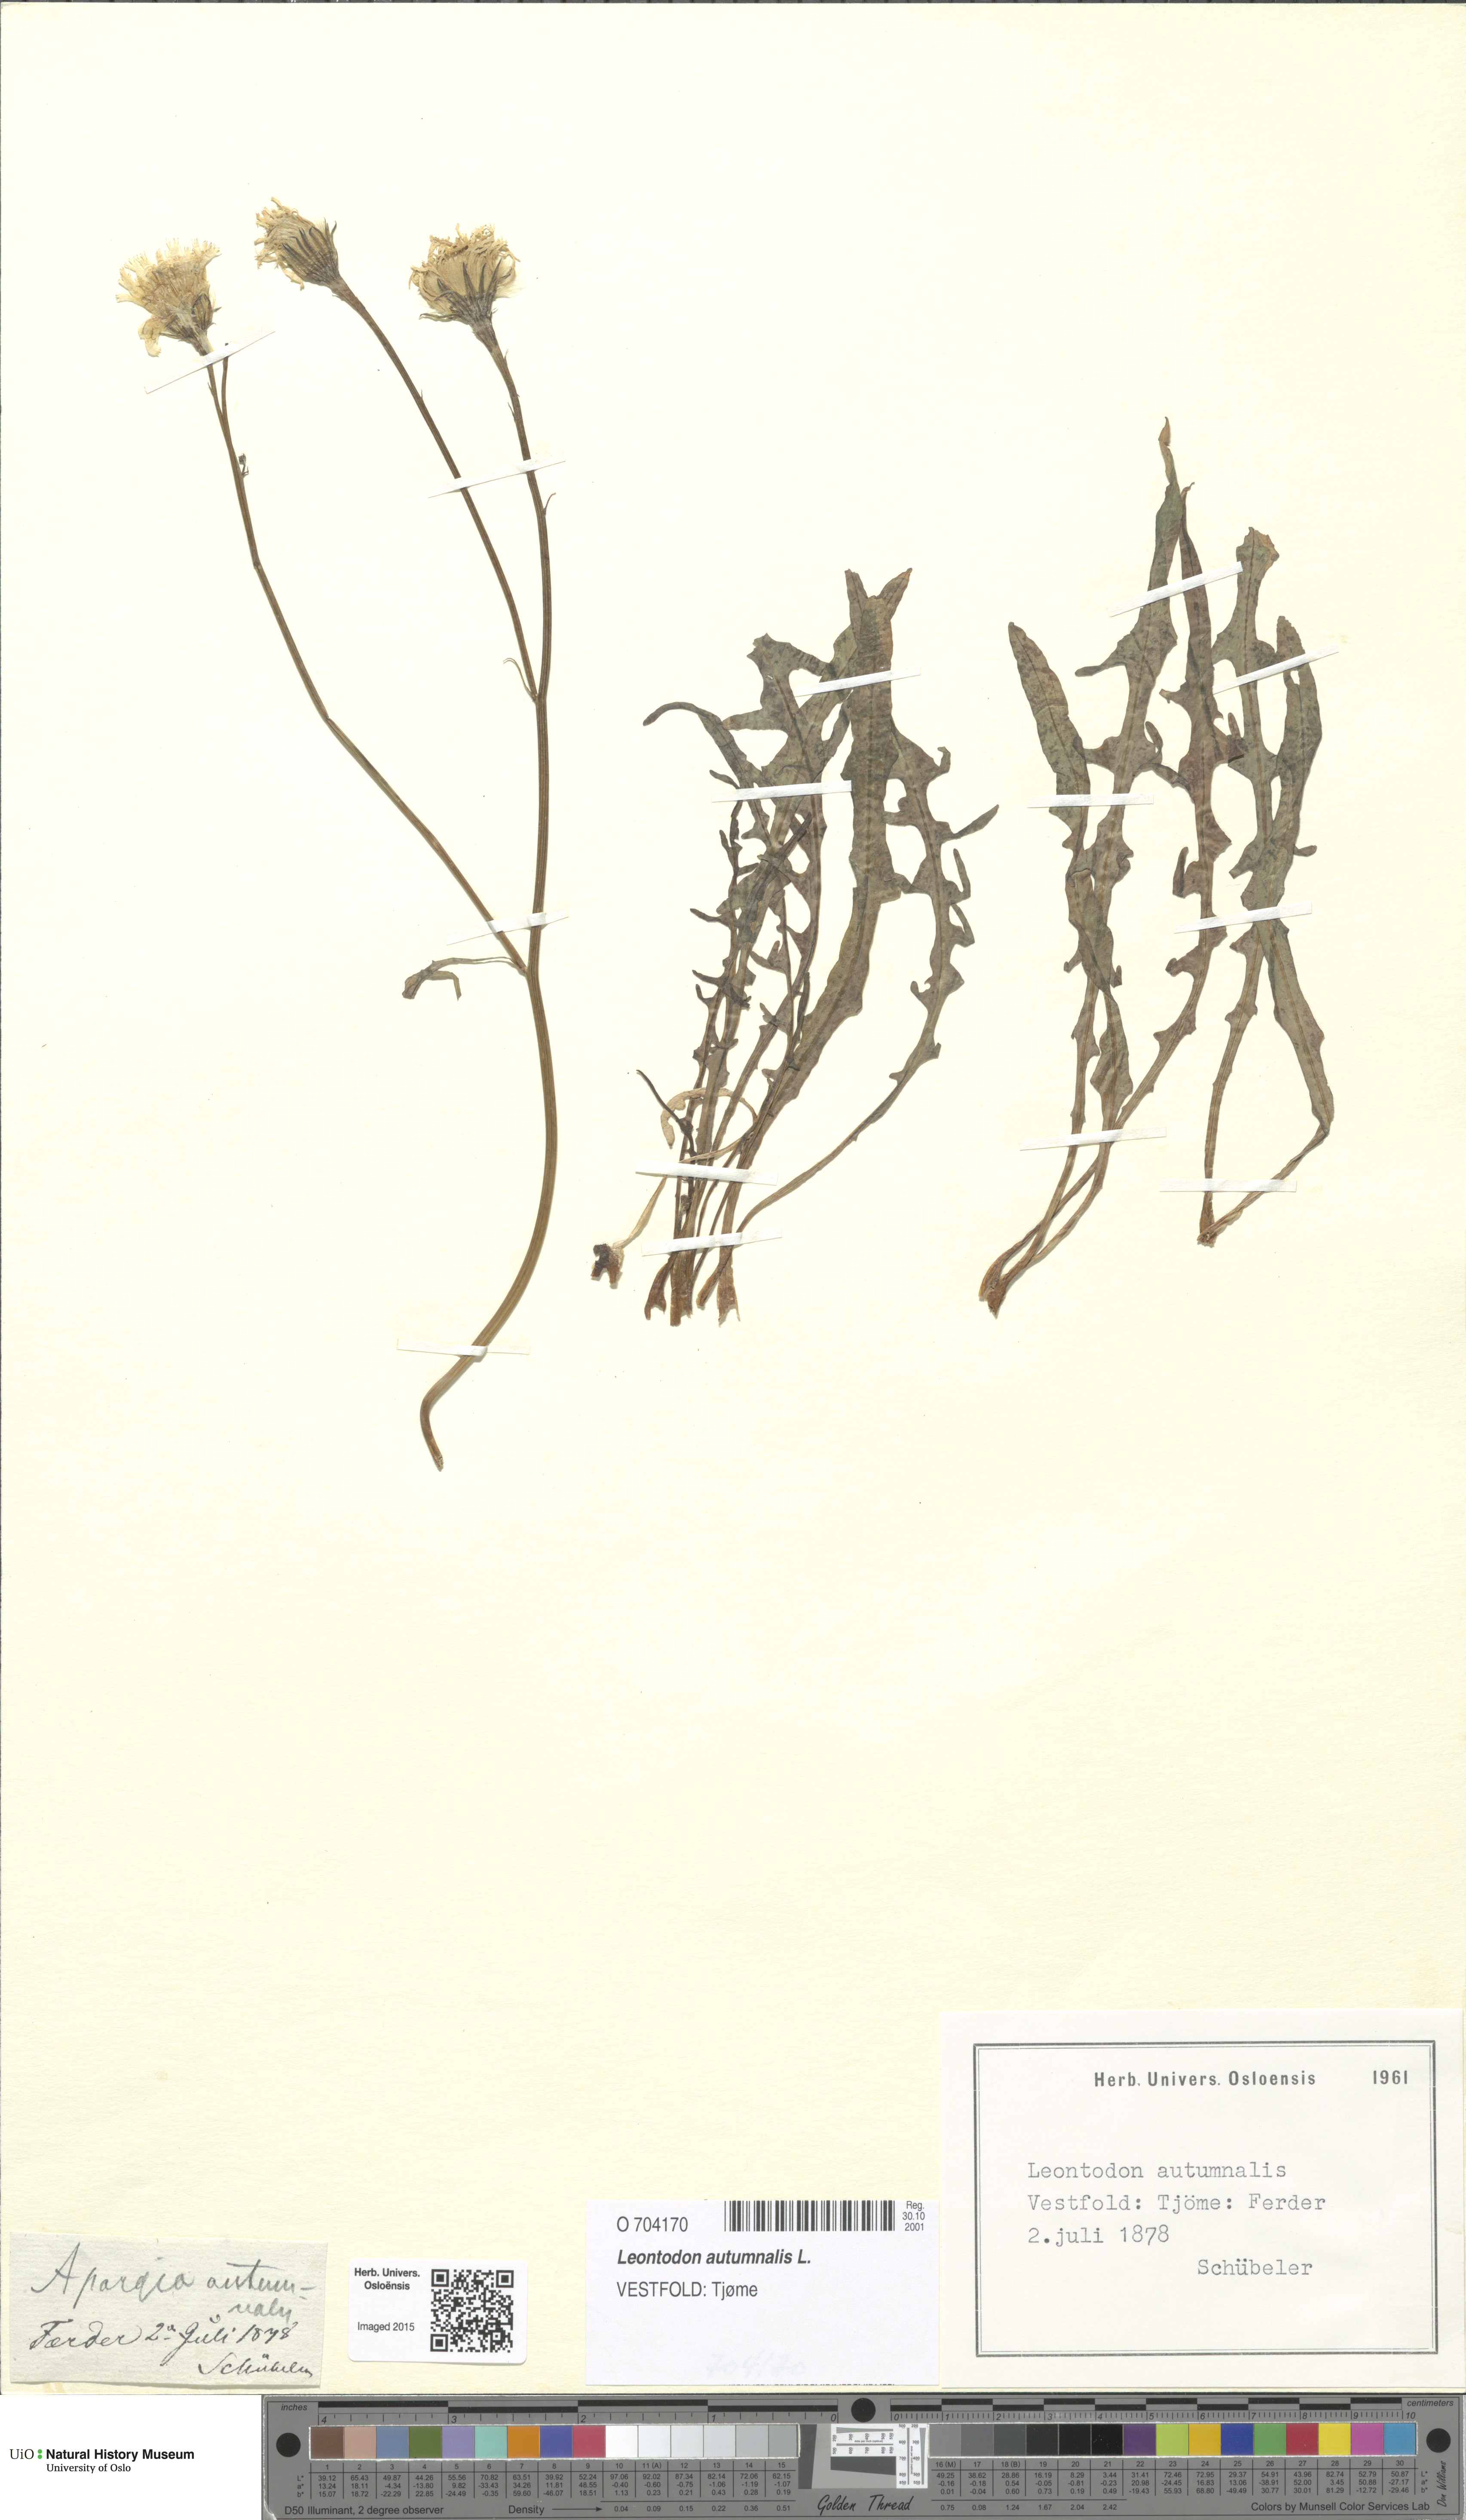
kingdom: Plantae
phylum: Tracheophyta
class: Magnoliopsida
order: Asterales
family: Asteraceae
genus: Scorzoneroides
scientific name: Scorzoneroides autumnalis
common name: Autumn hawkbit
